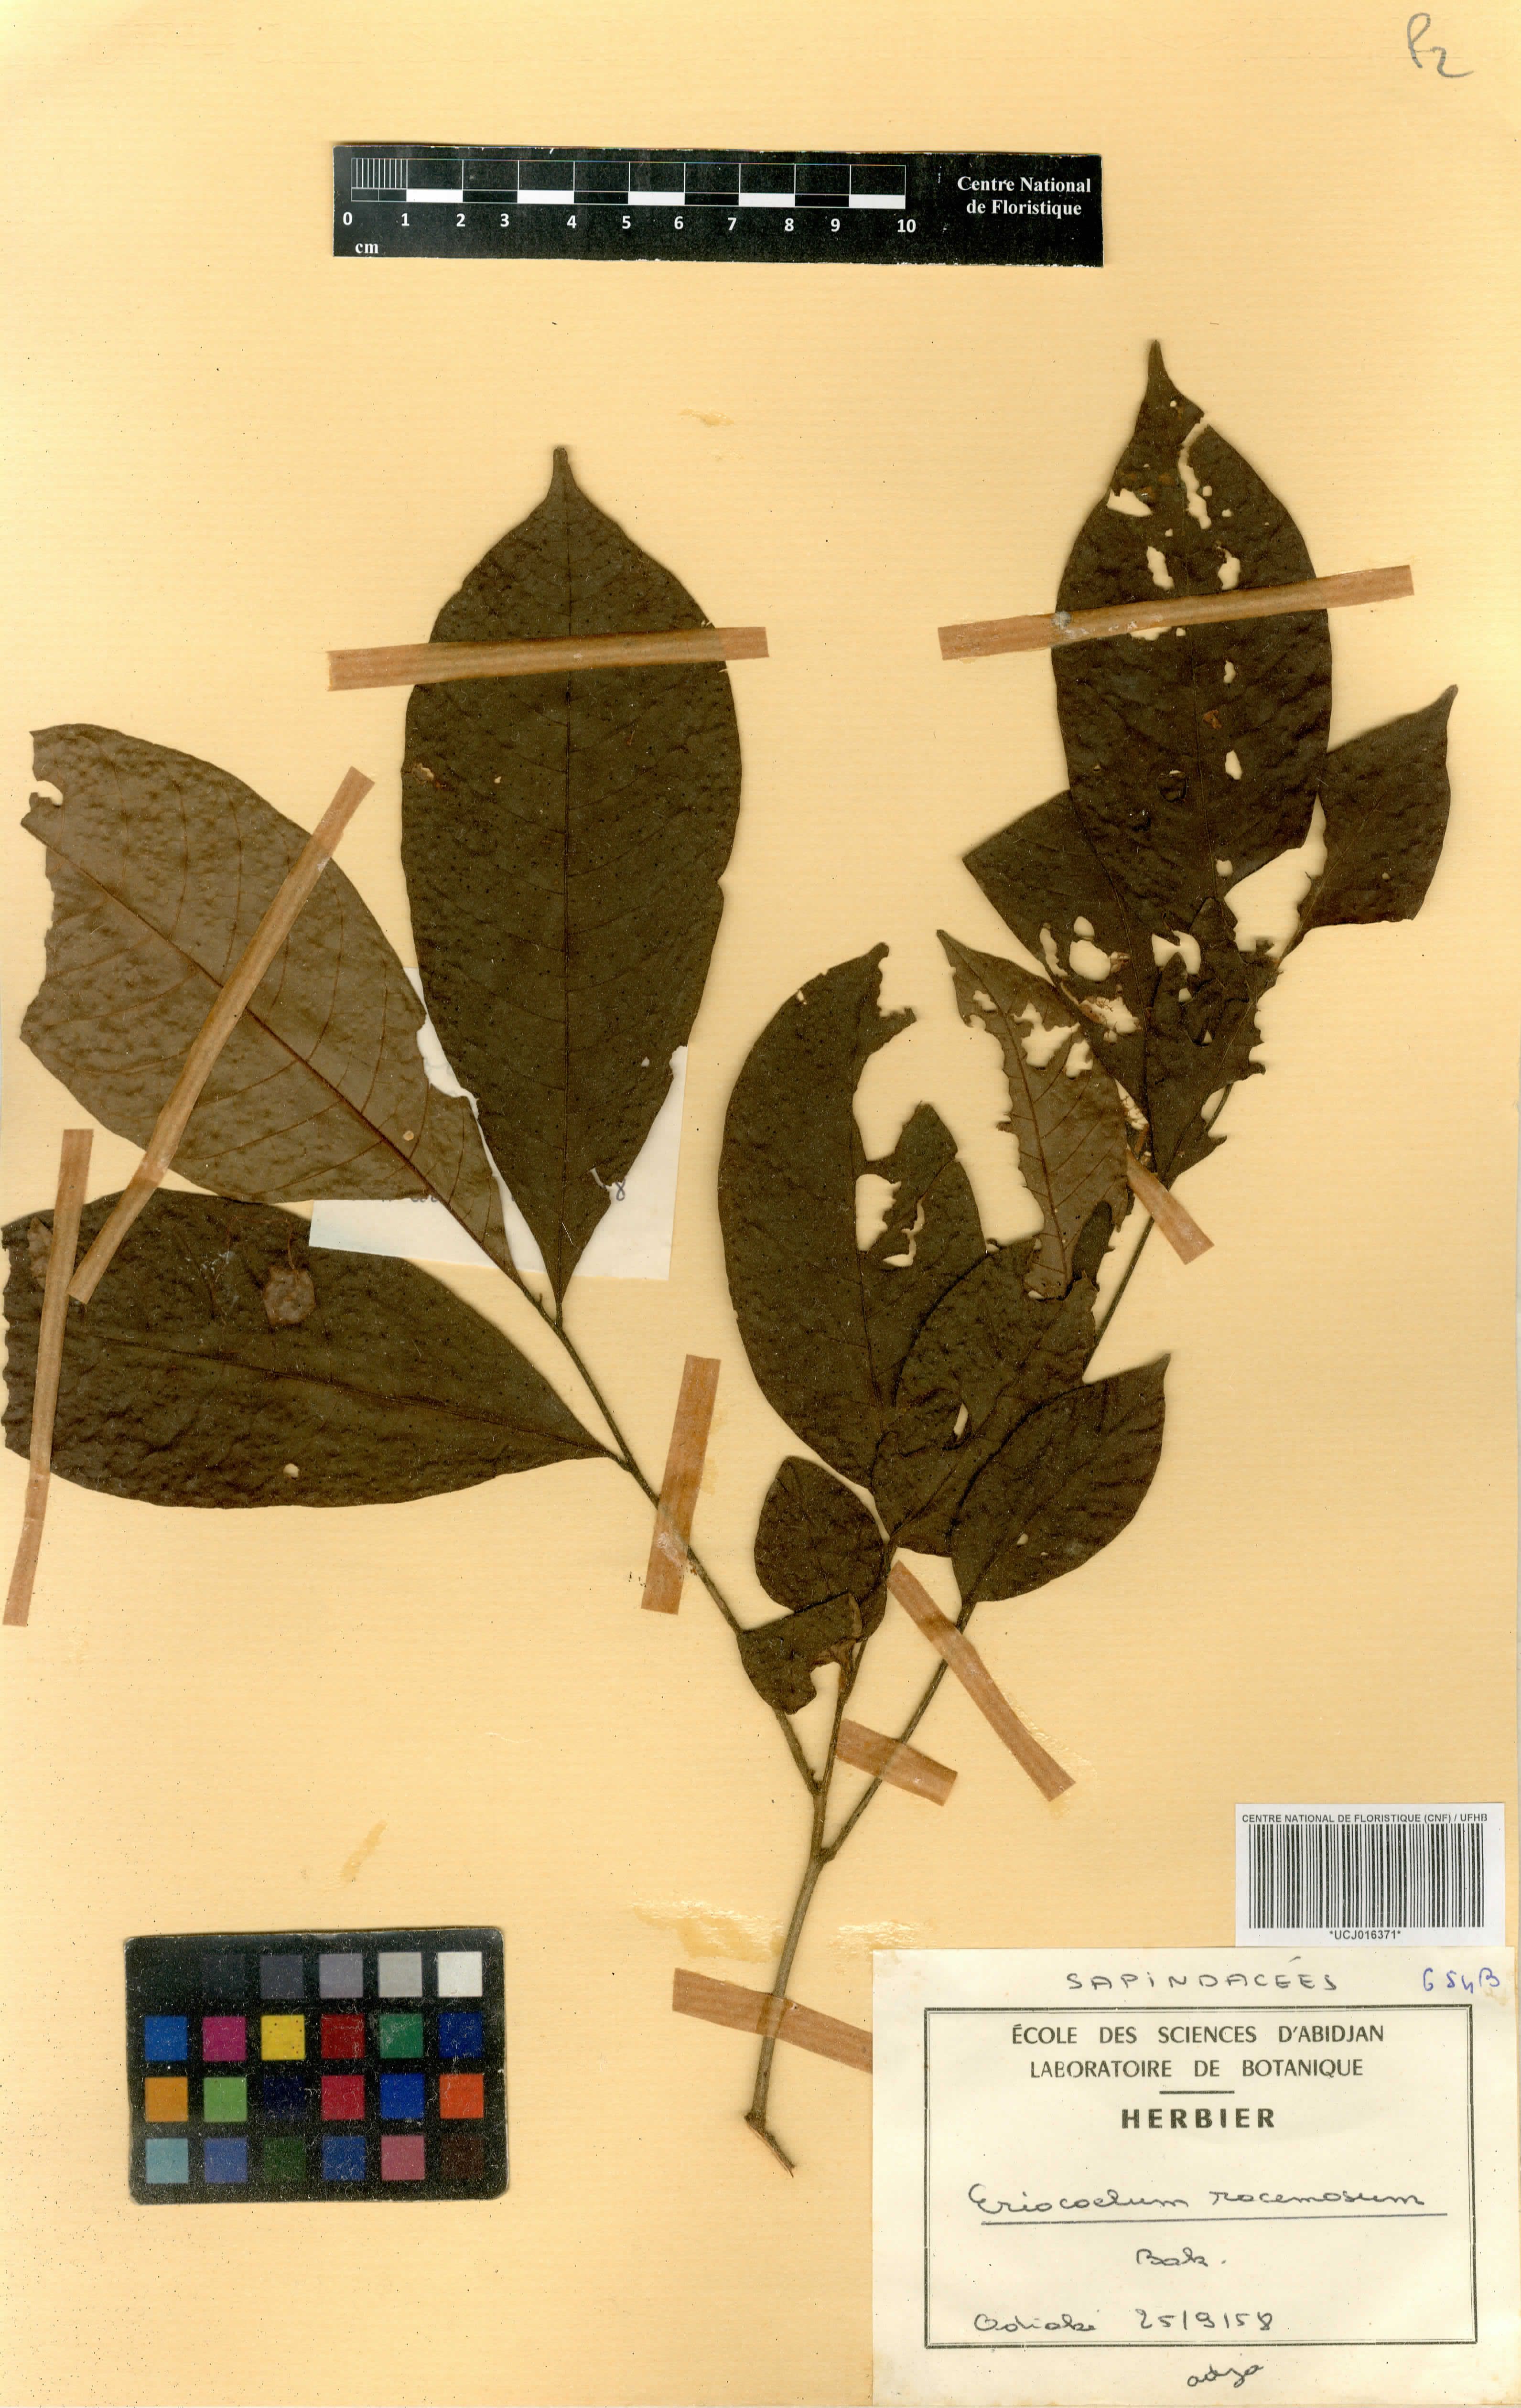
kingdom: Plantae
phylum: Tracheophyta
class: Magnoliopsida
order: Sapindales
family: Sapindaceae
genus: Eriocoelum
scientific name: Eriocoelum racemosum
